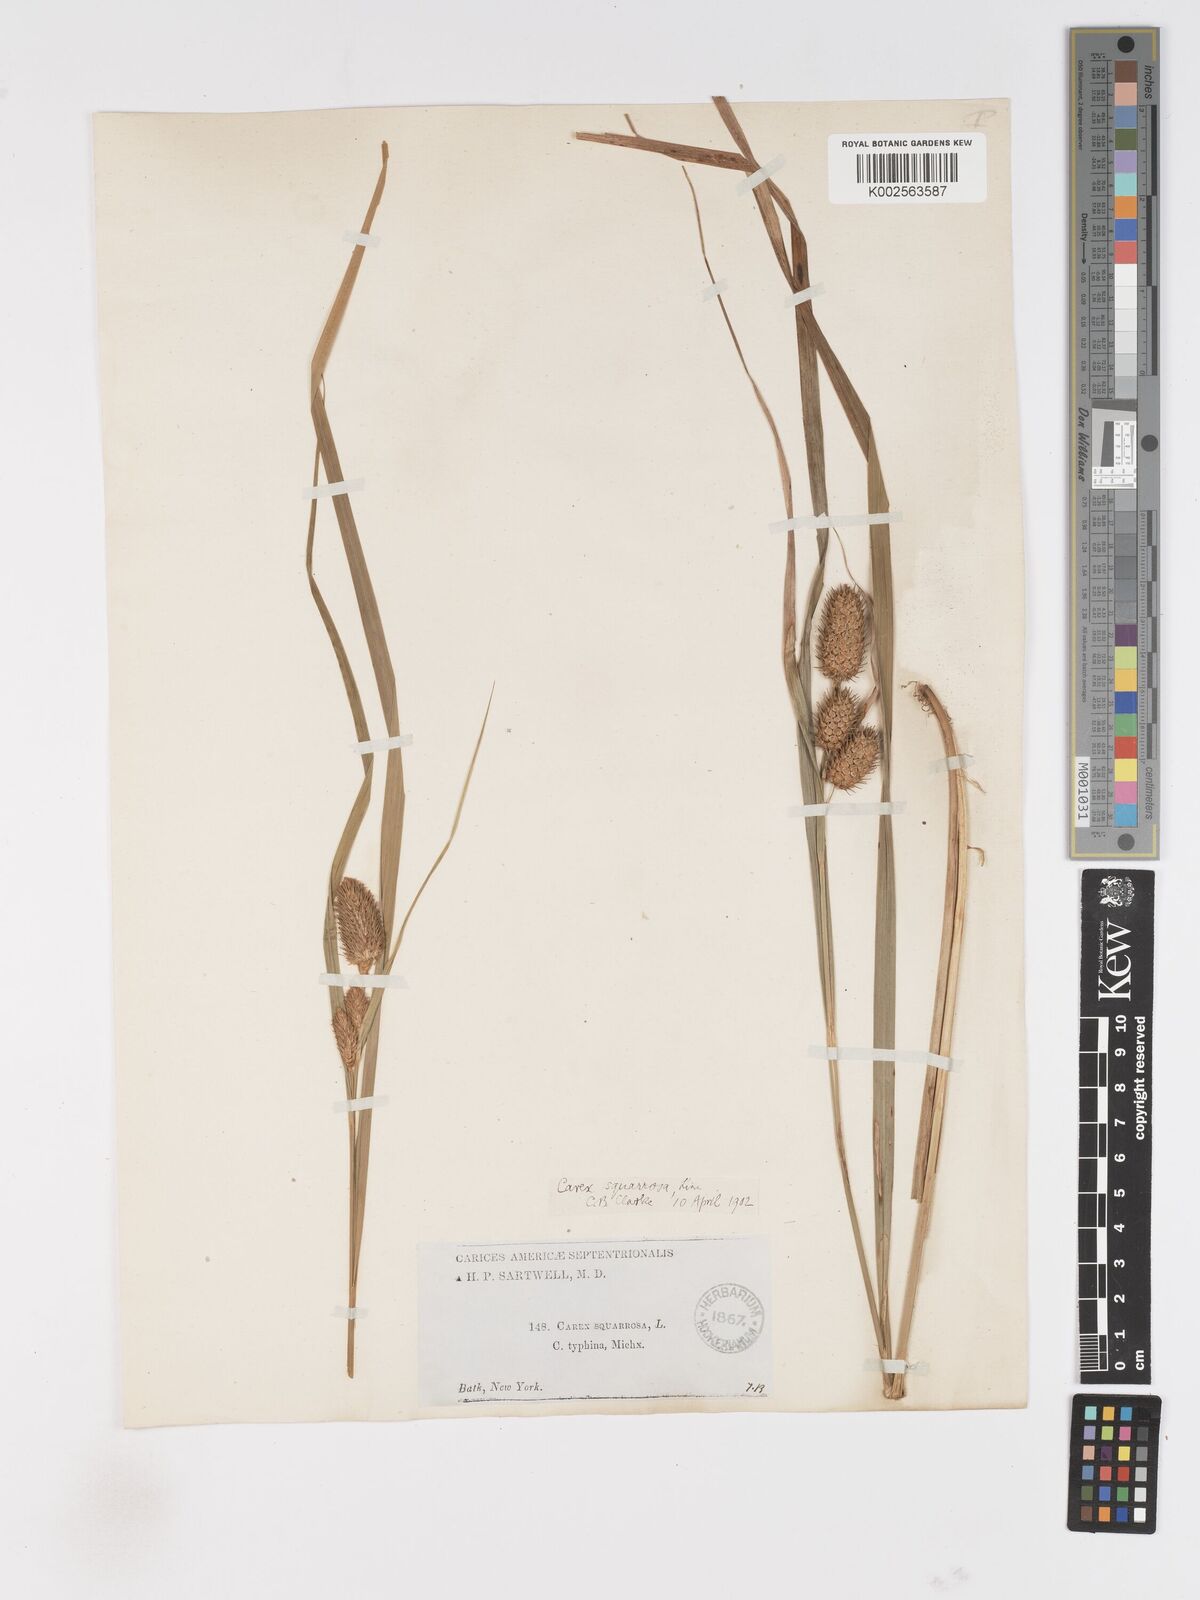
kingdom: Plantae
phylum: Tracheophyta
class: Liliopsida
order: Poales
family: Cyperaceae
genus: Carex
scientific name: Carex typhina
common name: Cattail sedge
